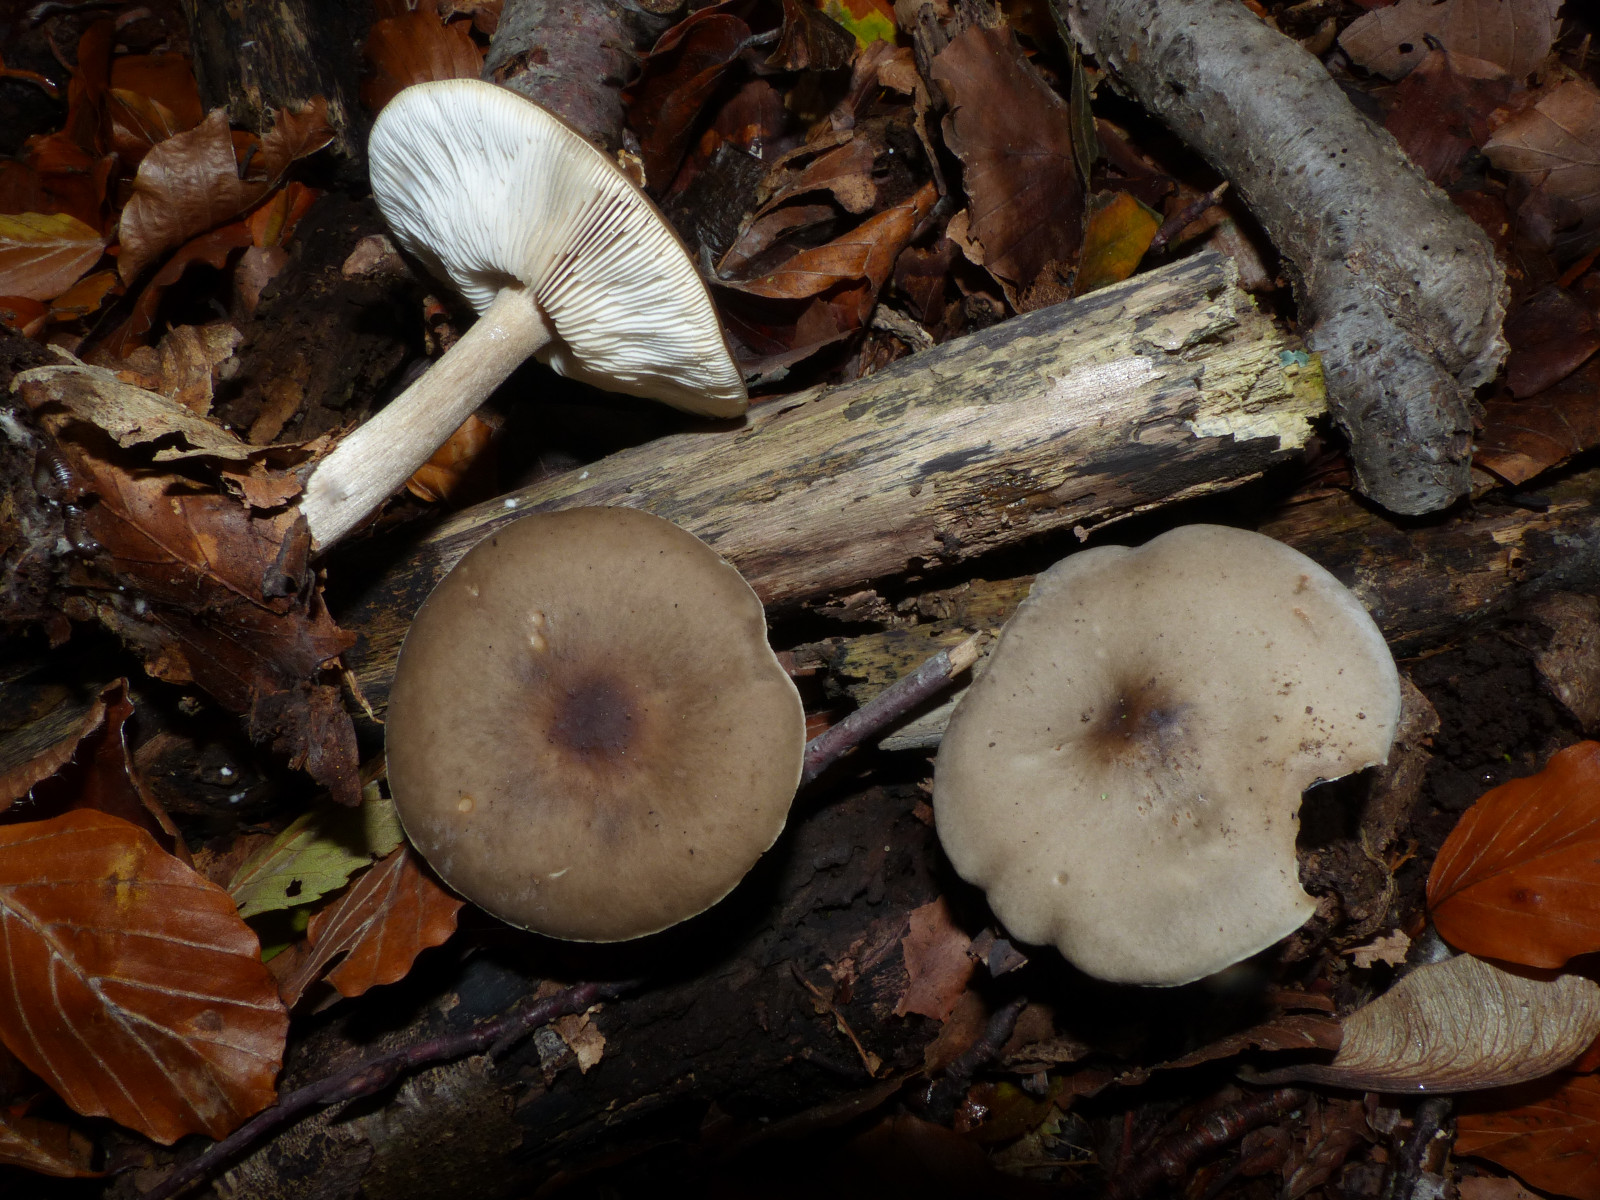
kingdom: Fungi
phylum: Basidiomycota
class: Agaricomycetes
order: Agaricales
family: Tricholomataceae
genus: Melanoleuca
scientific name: Melanoleuca polioleuca
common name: hvidbladet munkehat
